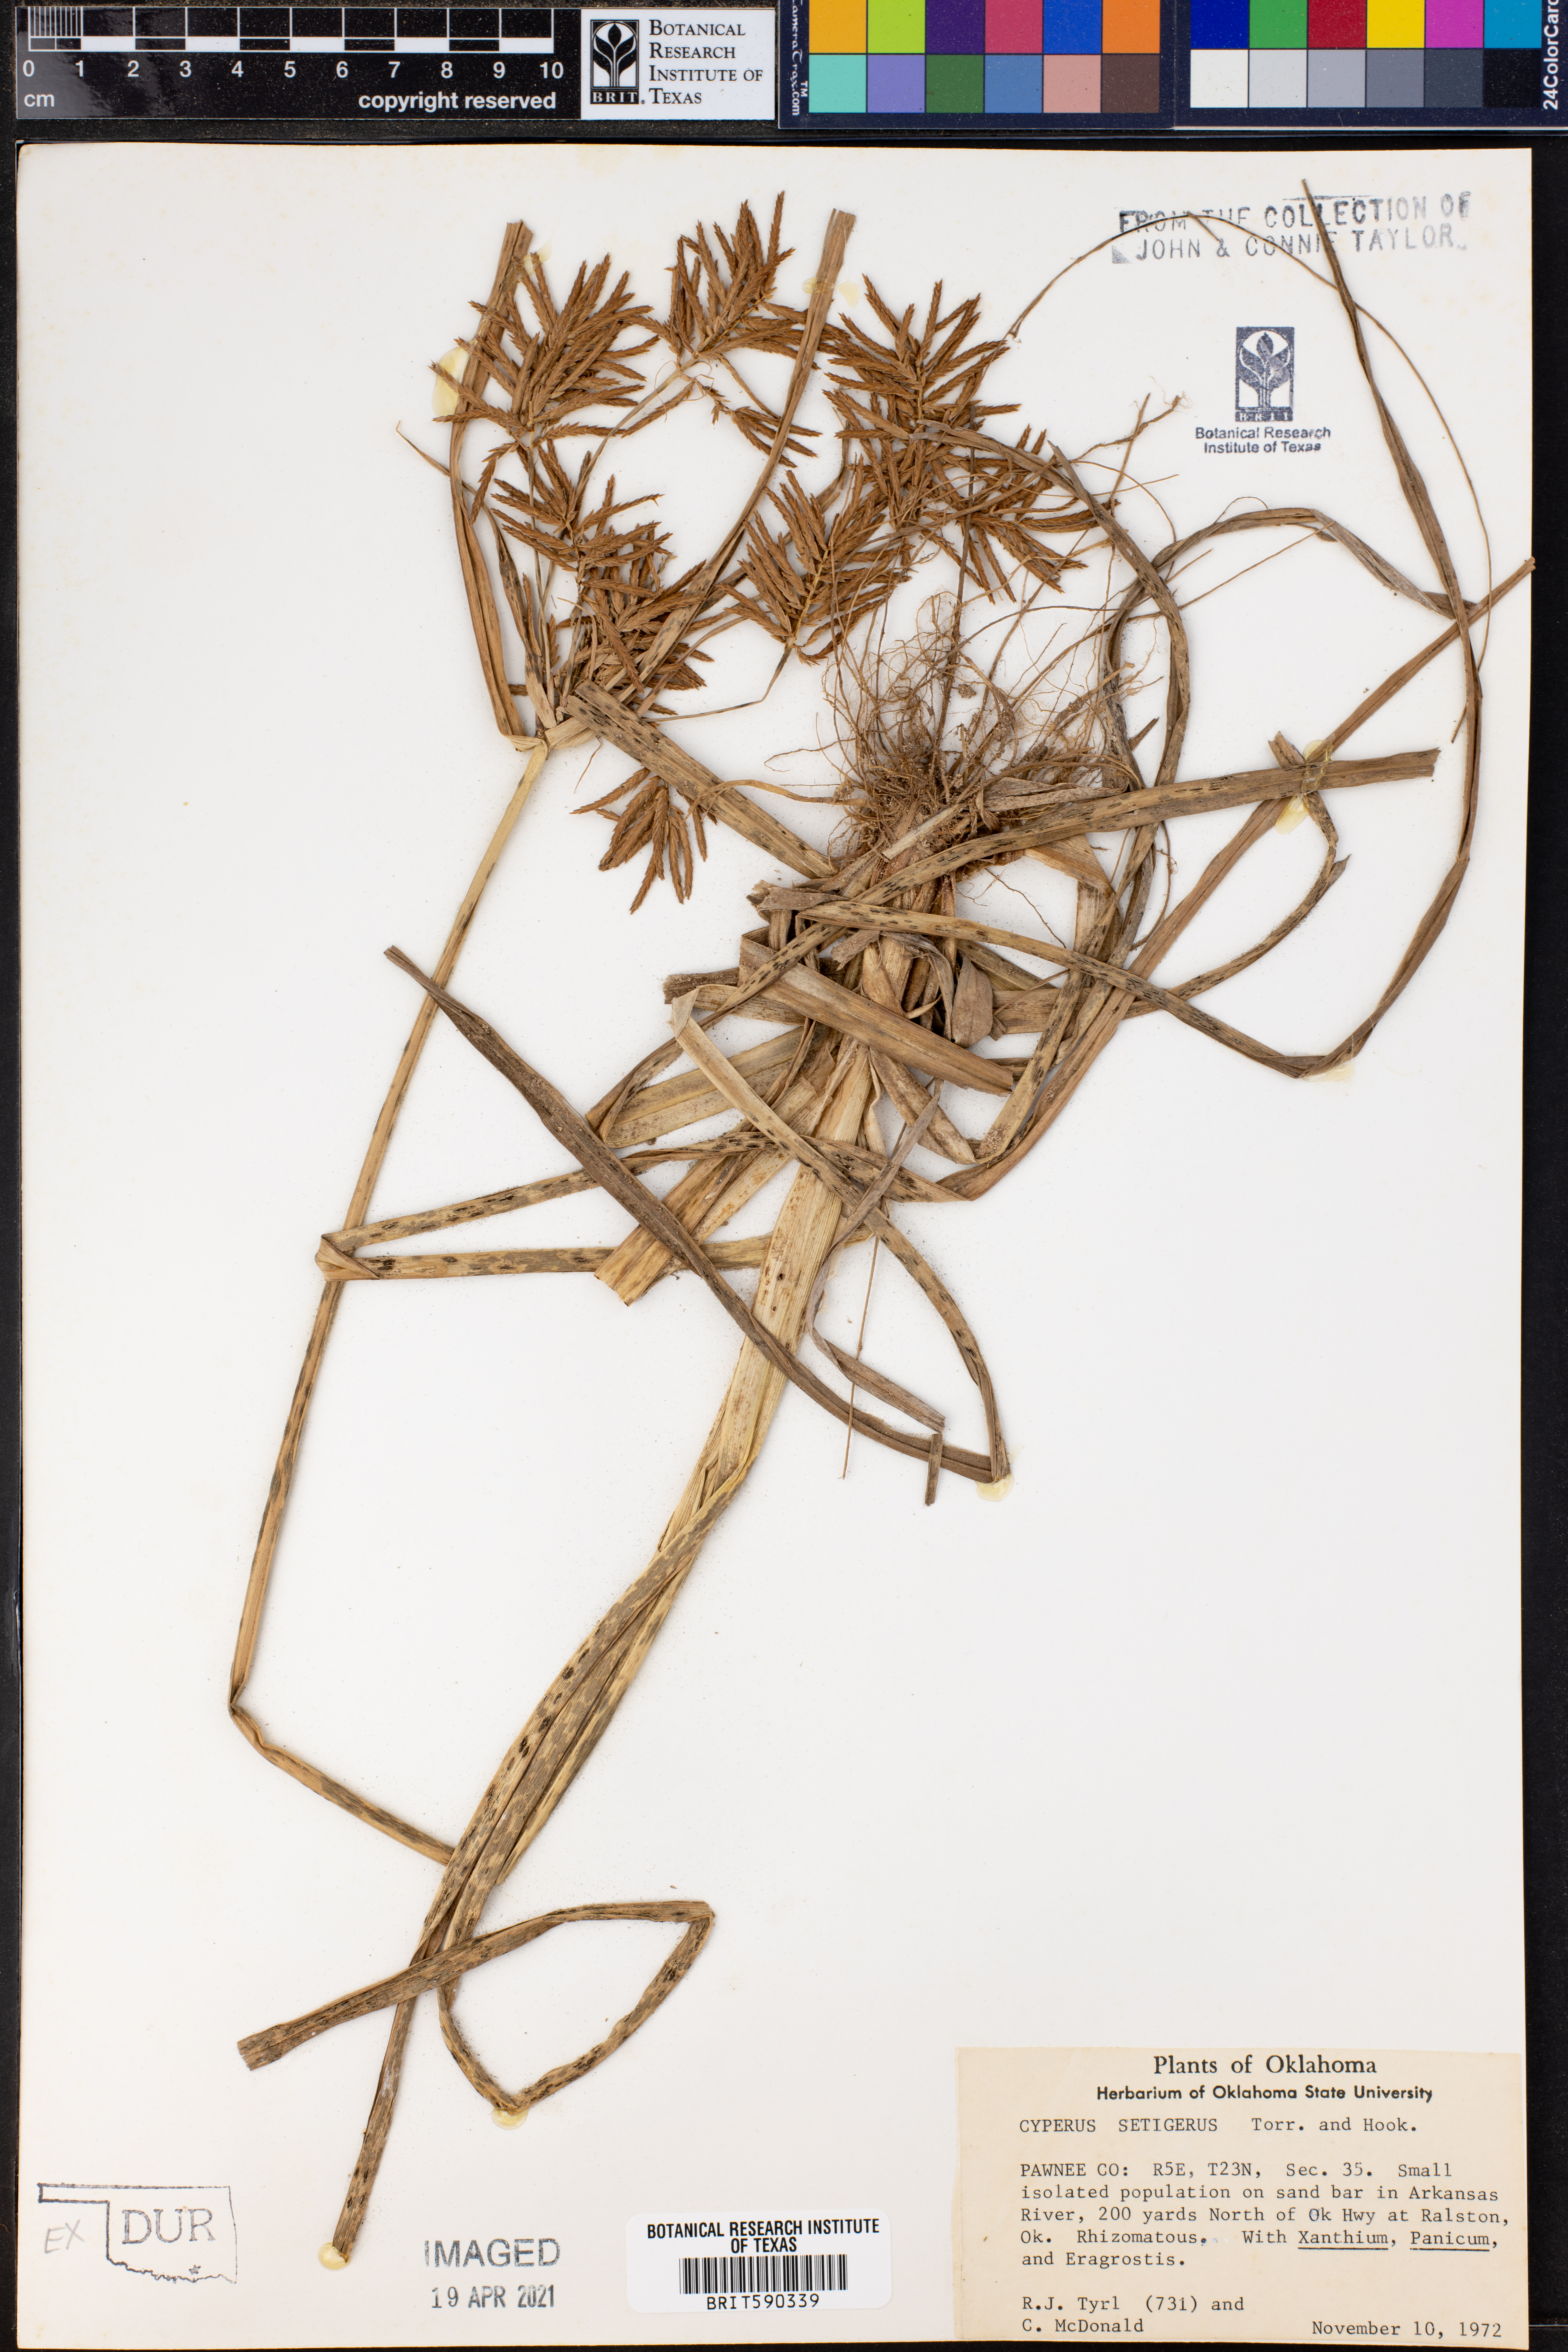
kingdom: Plantae
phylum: Tracheophyta
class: Liliopsida
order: Poales
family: Cyperaceae
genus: Cyperus
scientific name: Cyperus setigerus
